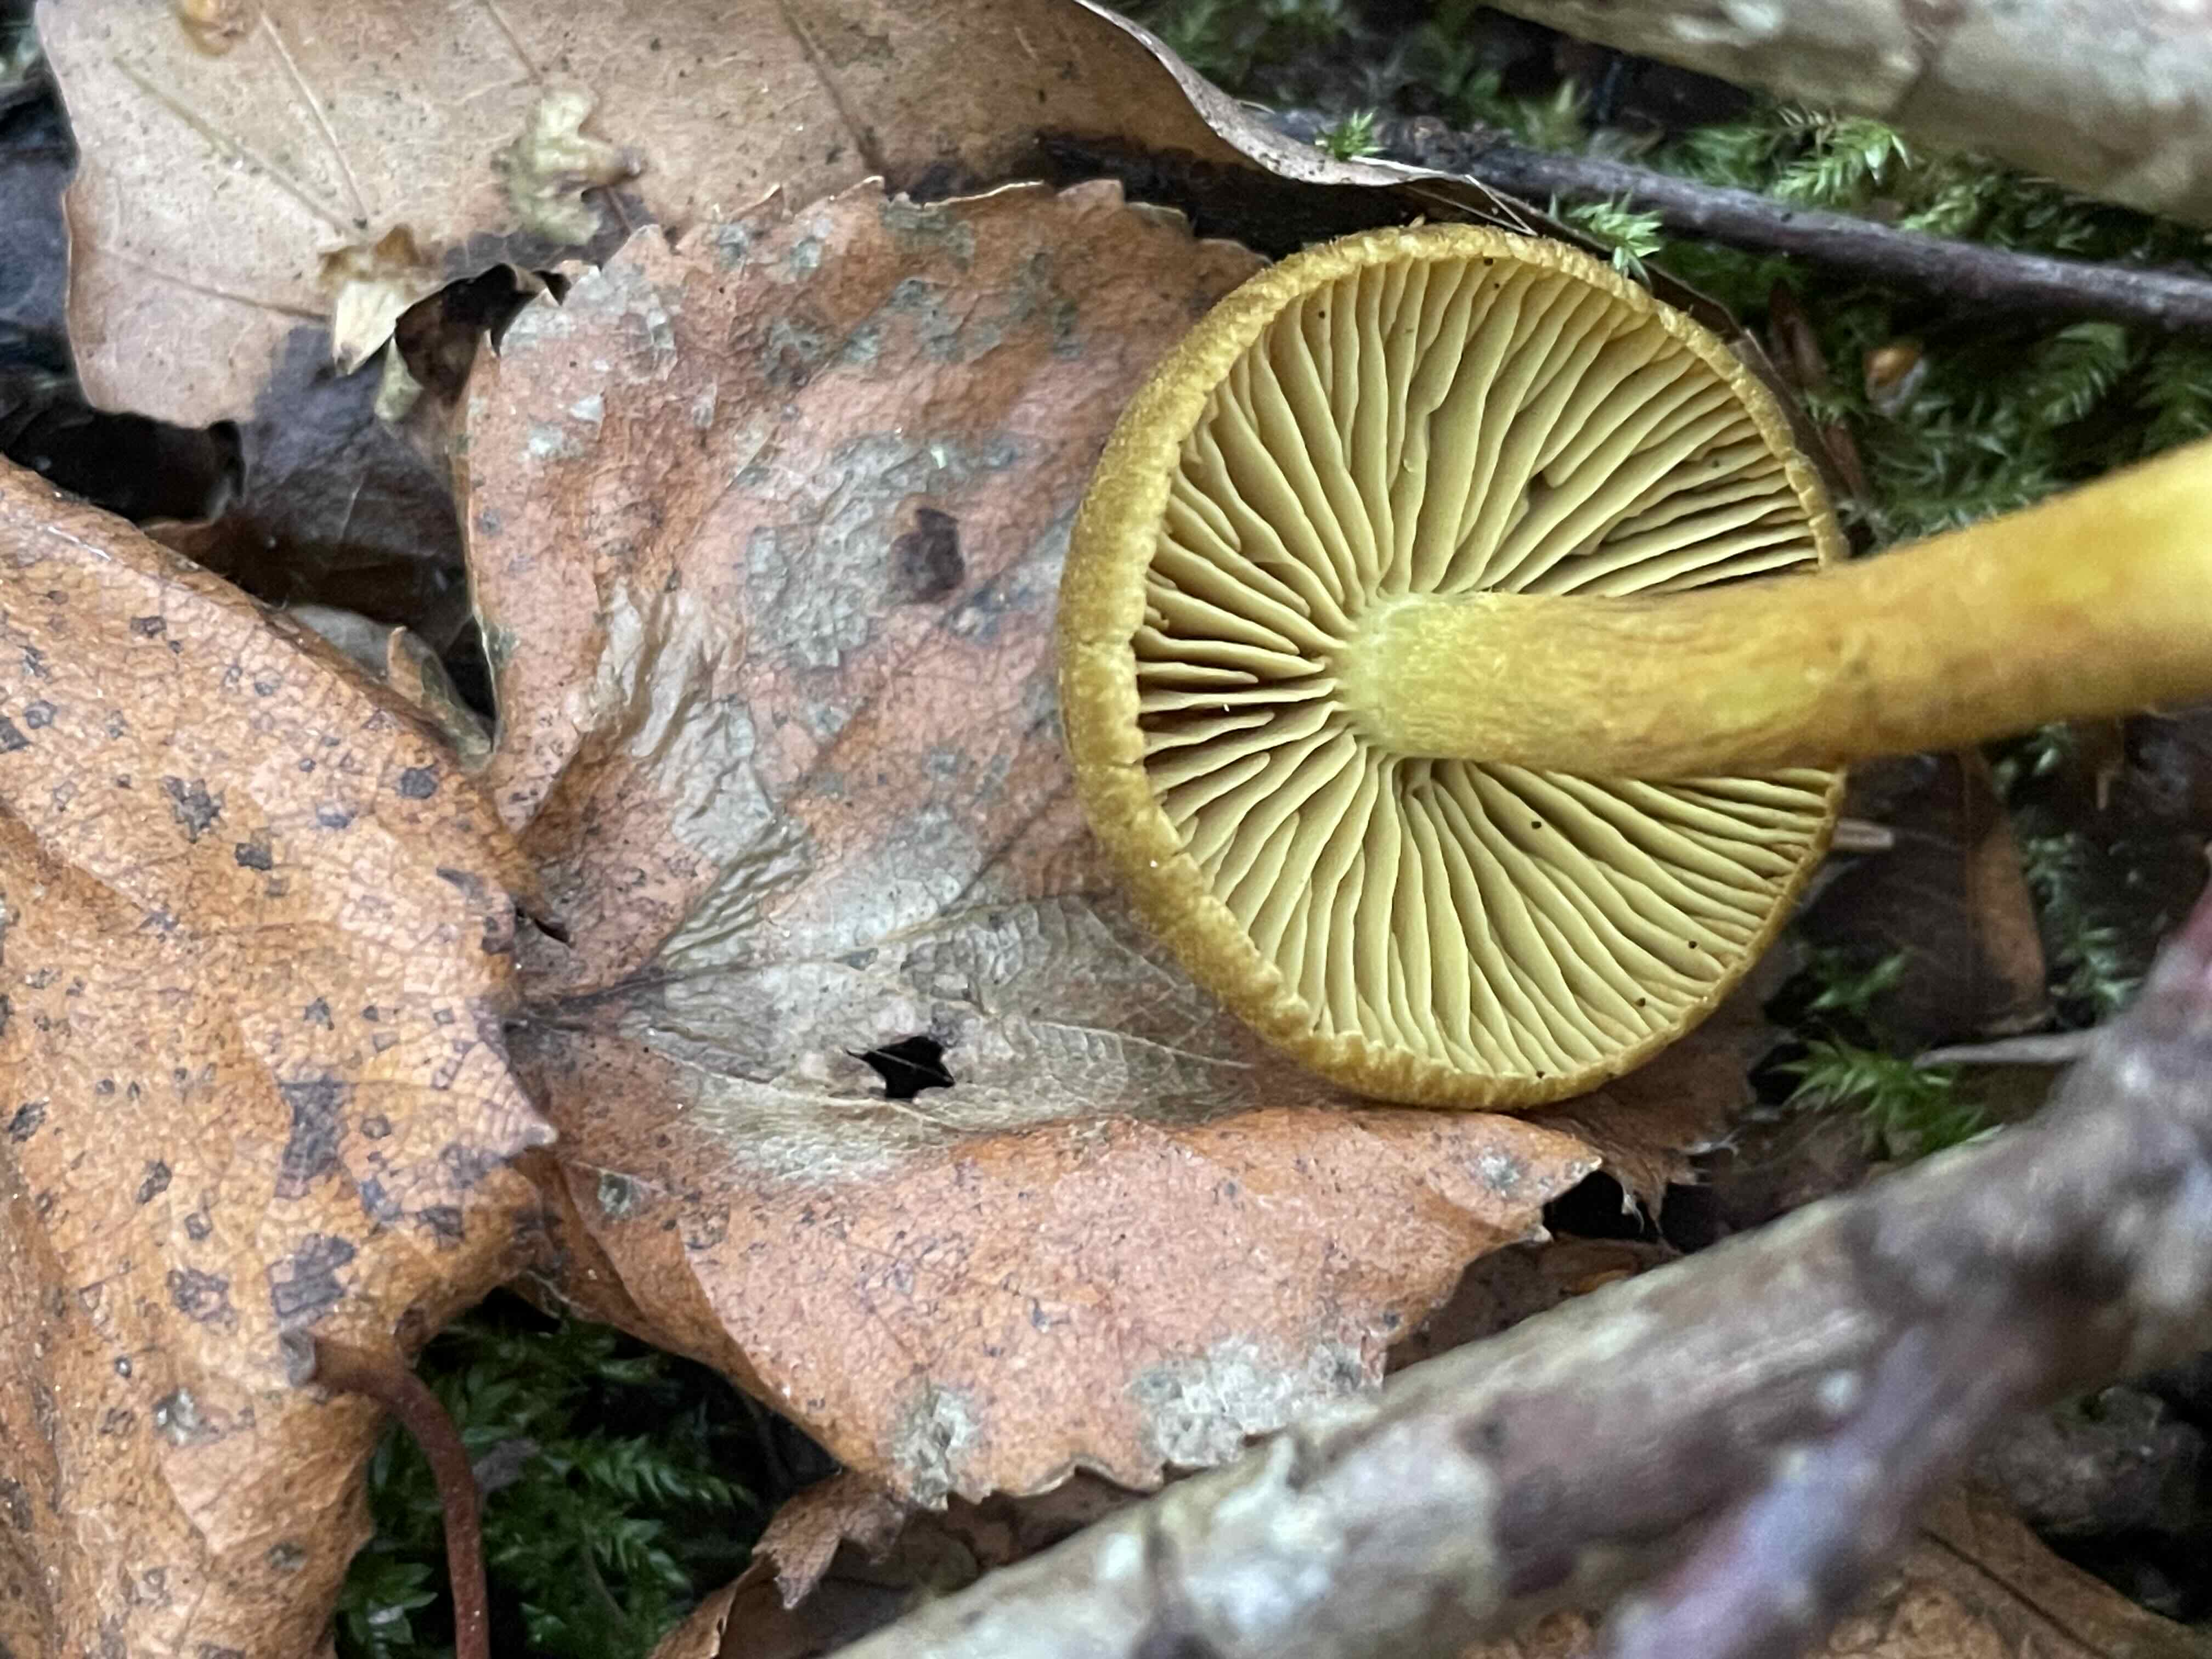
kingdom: Fungi
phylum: Basidiomycota
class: Agaricomycetes
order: Agaricales
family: Cortinariaceae
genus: Cortinarius
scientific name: Cortinarius olivaceofuscus
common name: olivenbrun slørhat
